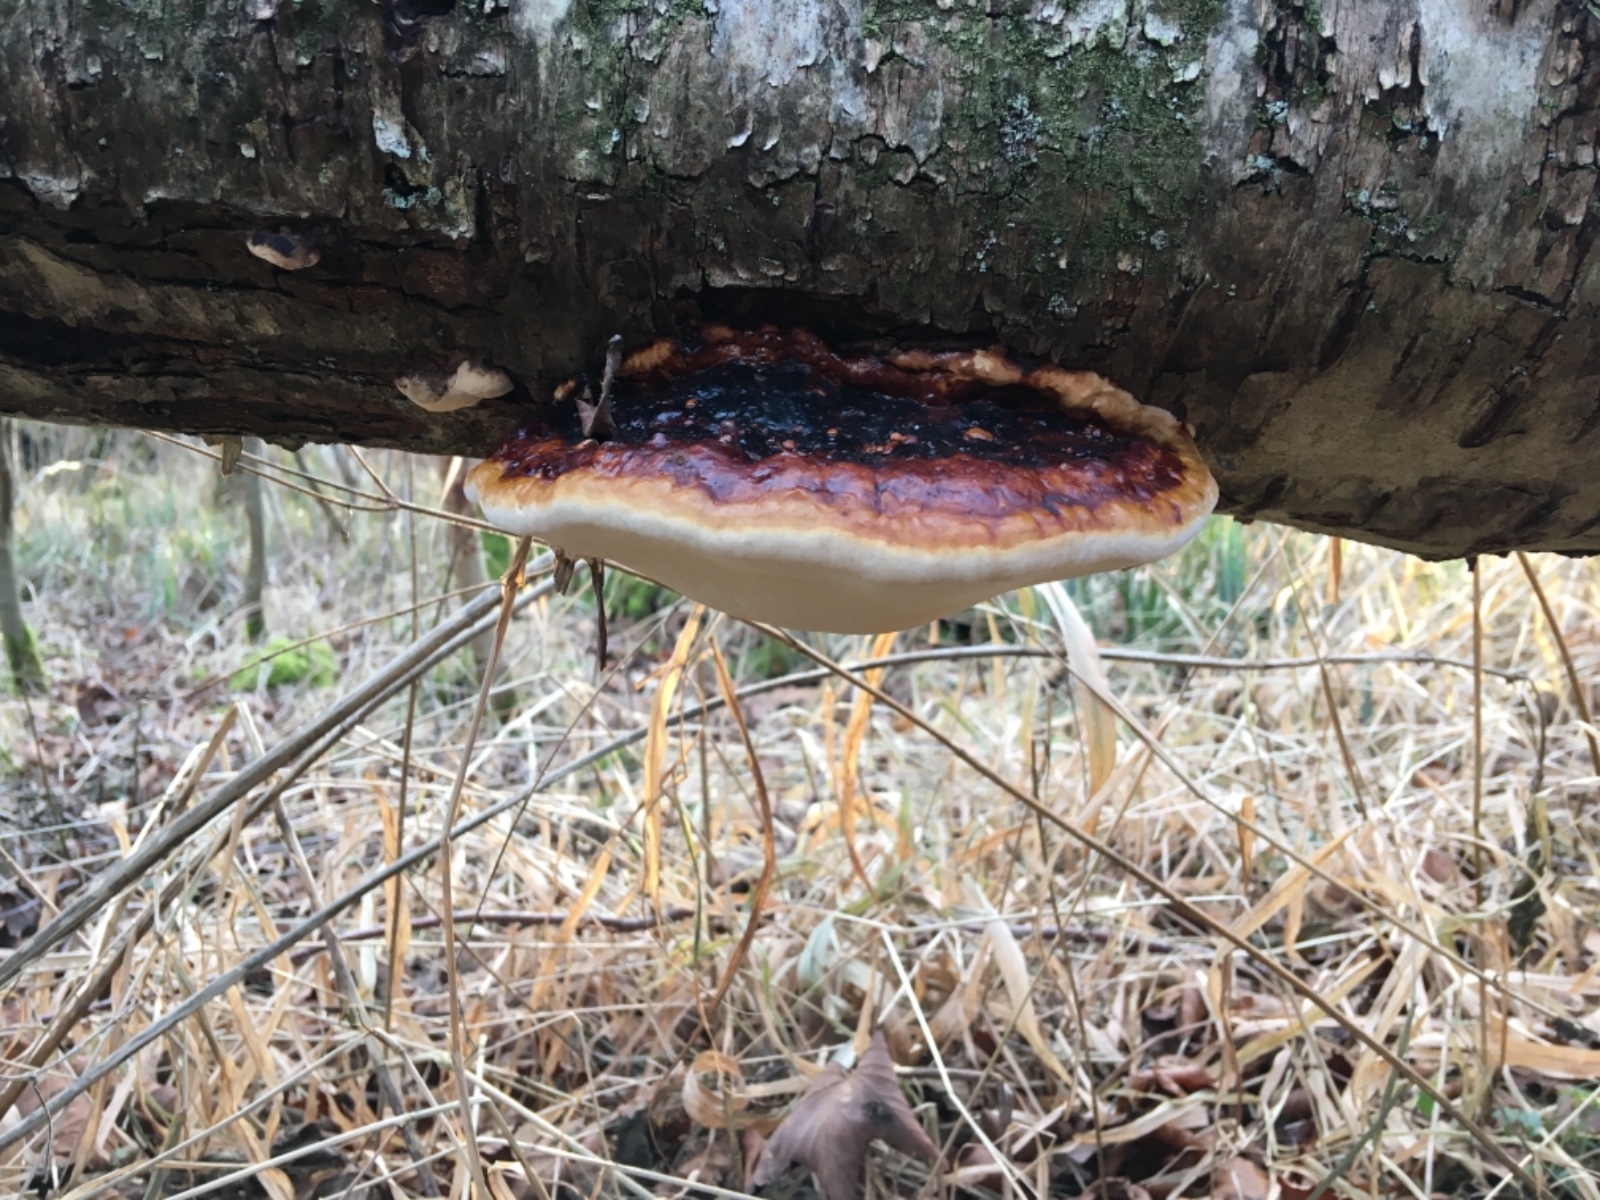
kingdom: Fungi
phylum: Basidiomycota
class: Agaricomycetes
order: Polyporales
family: Fomitopsidaceae
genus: Fomitopsis
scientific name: Fomitopsis pinicola
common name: randbæltet hovporesvamp
